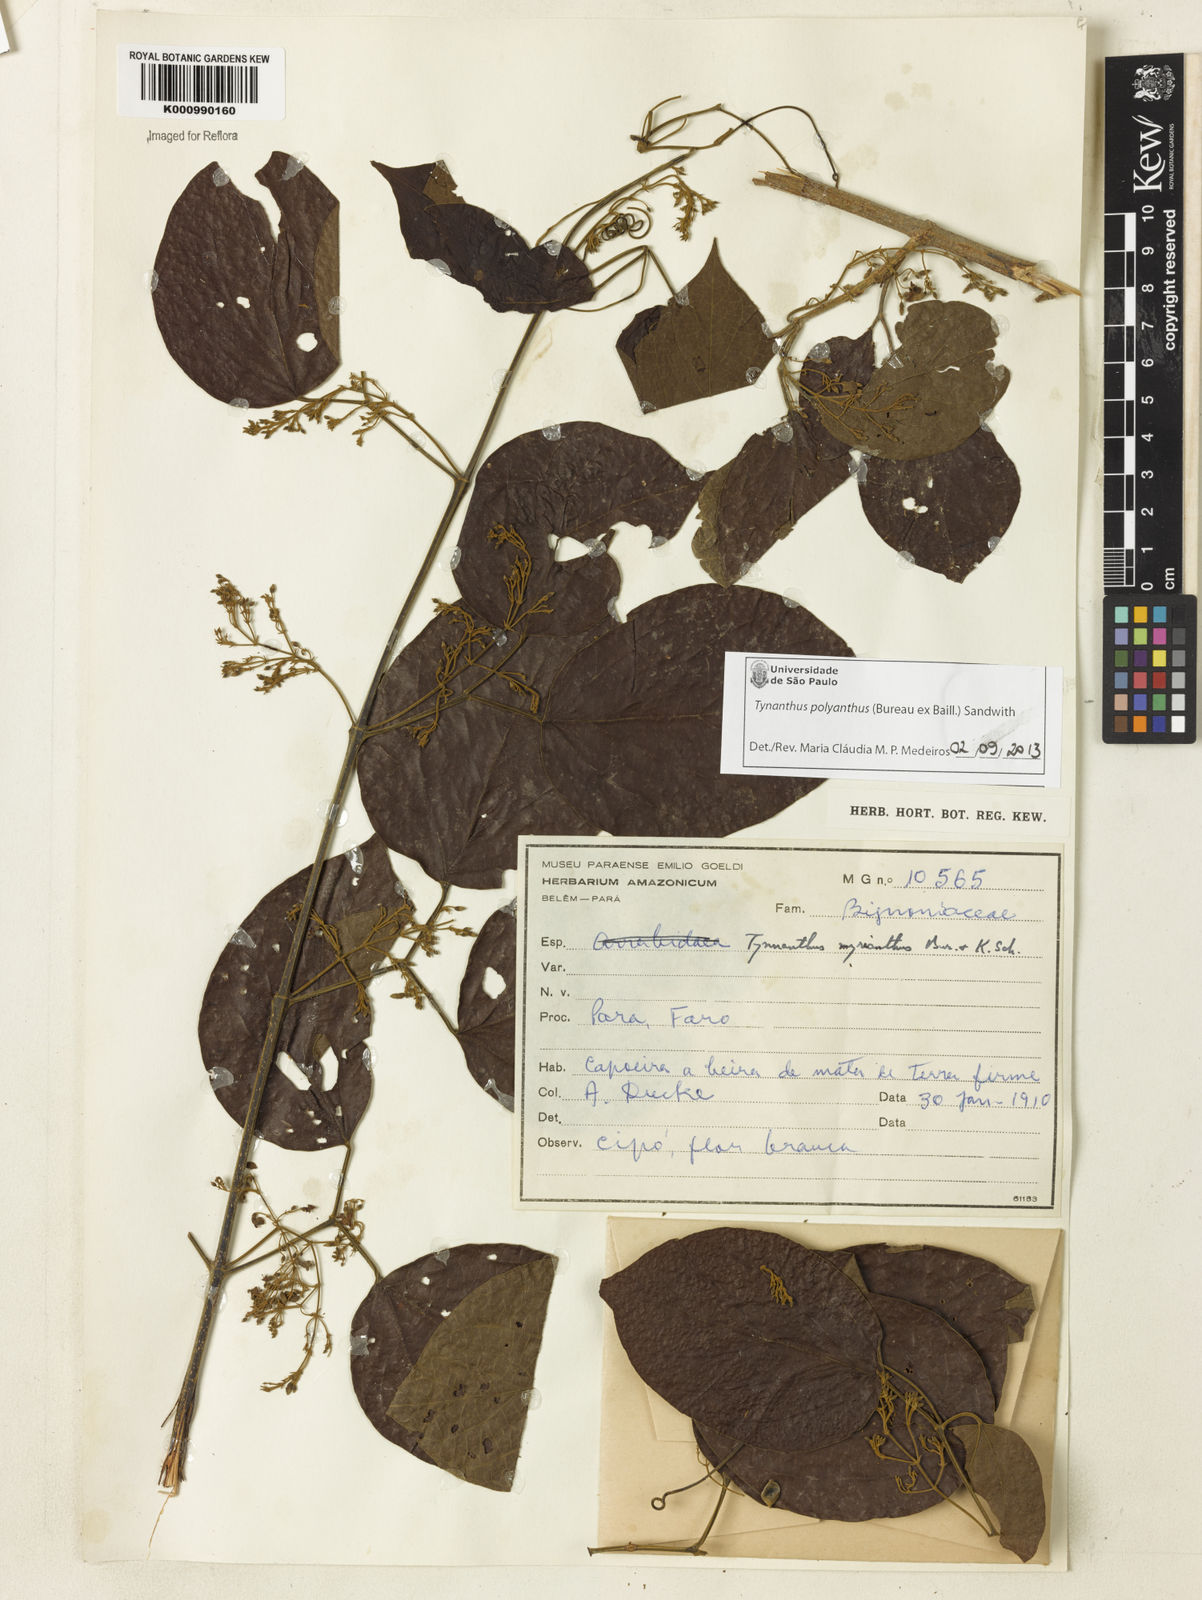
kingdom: Plantae
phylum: Tracheophyta
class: Magnoliopsida
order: Lamiales
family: Bignoniaceae
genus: Tynanthus
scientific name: Tynanthus polyanthus
